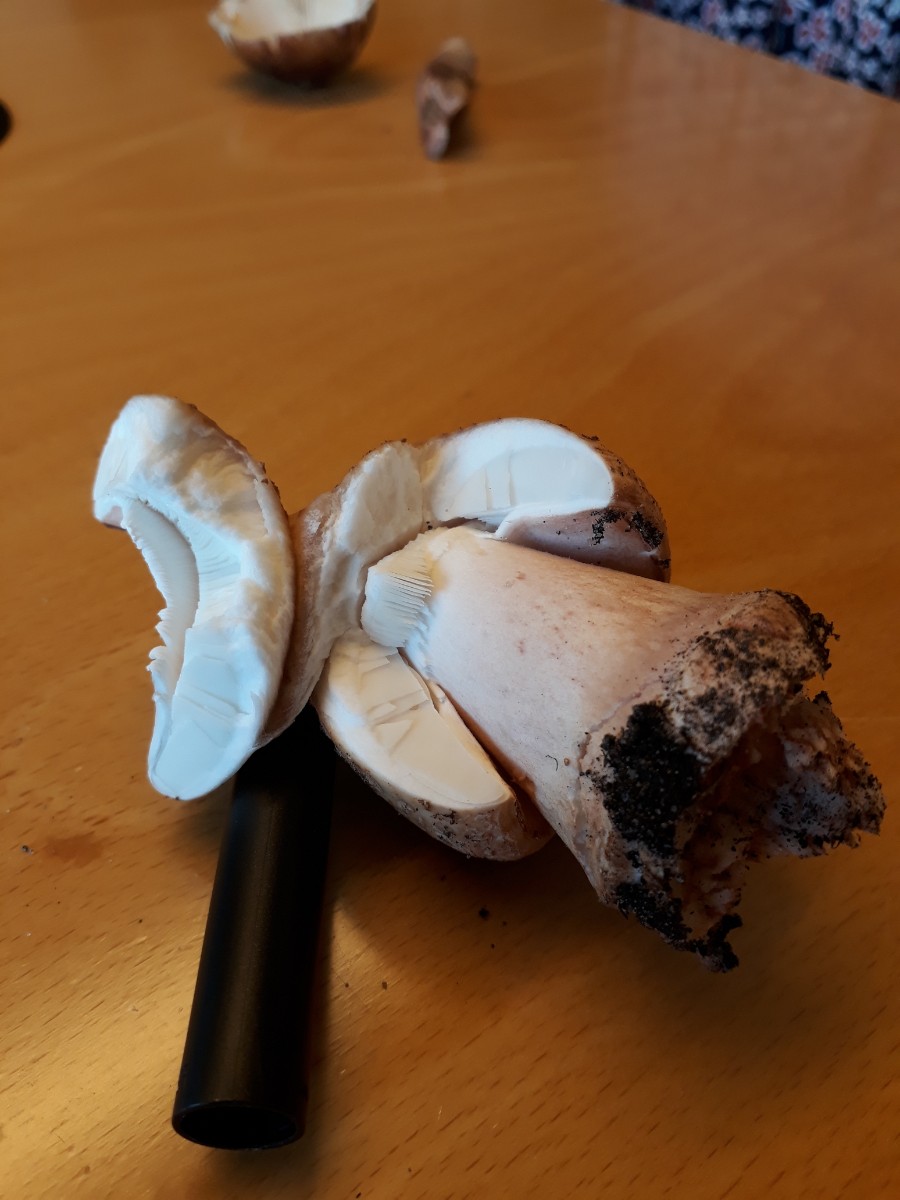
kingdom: Fungi
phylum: Basidiomycota
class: Agaricomycetes
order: Agaricales
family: Amanitaceae
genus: Amanita
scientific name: Amanita rubescens
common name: rødmende fluesvamp
